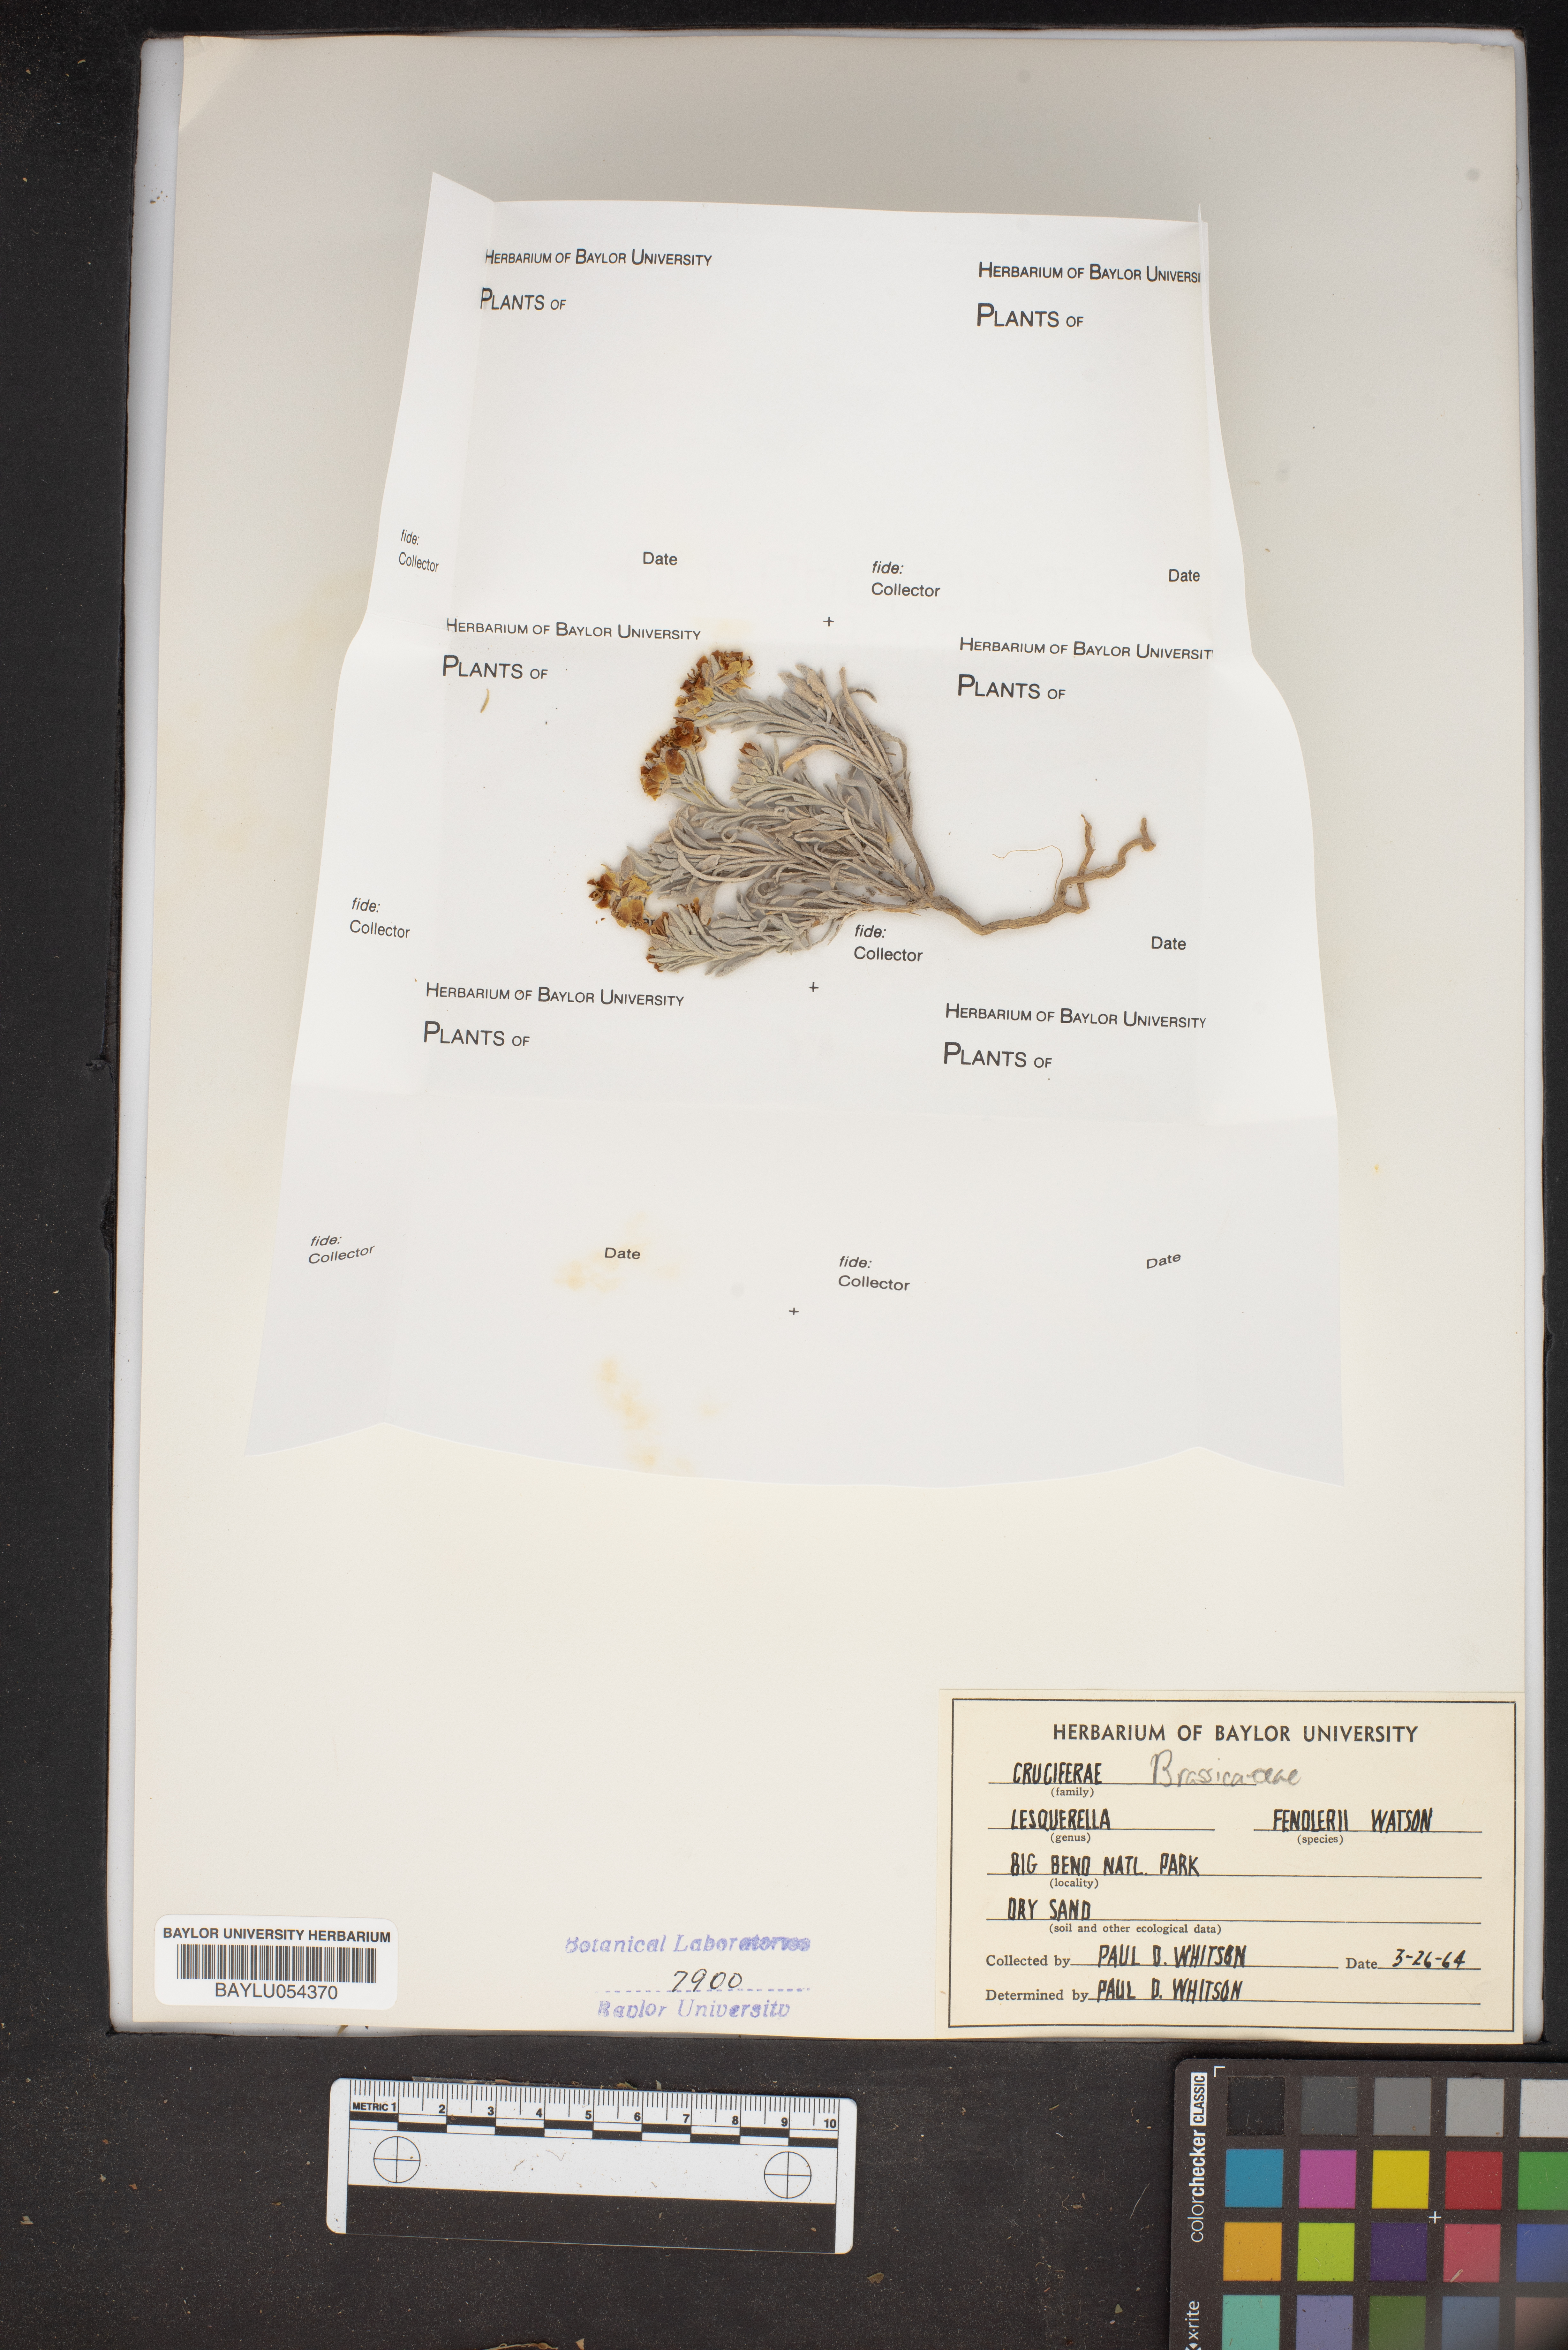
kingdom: Plantae
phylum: Tracheophyta
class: Magnoliopsida
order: Brassicales
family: Brassicaceae
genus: Physaria
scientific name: Physaria fendleri
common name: Fendler's bladderpod
